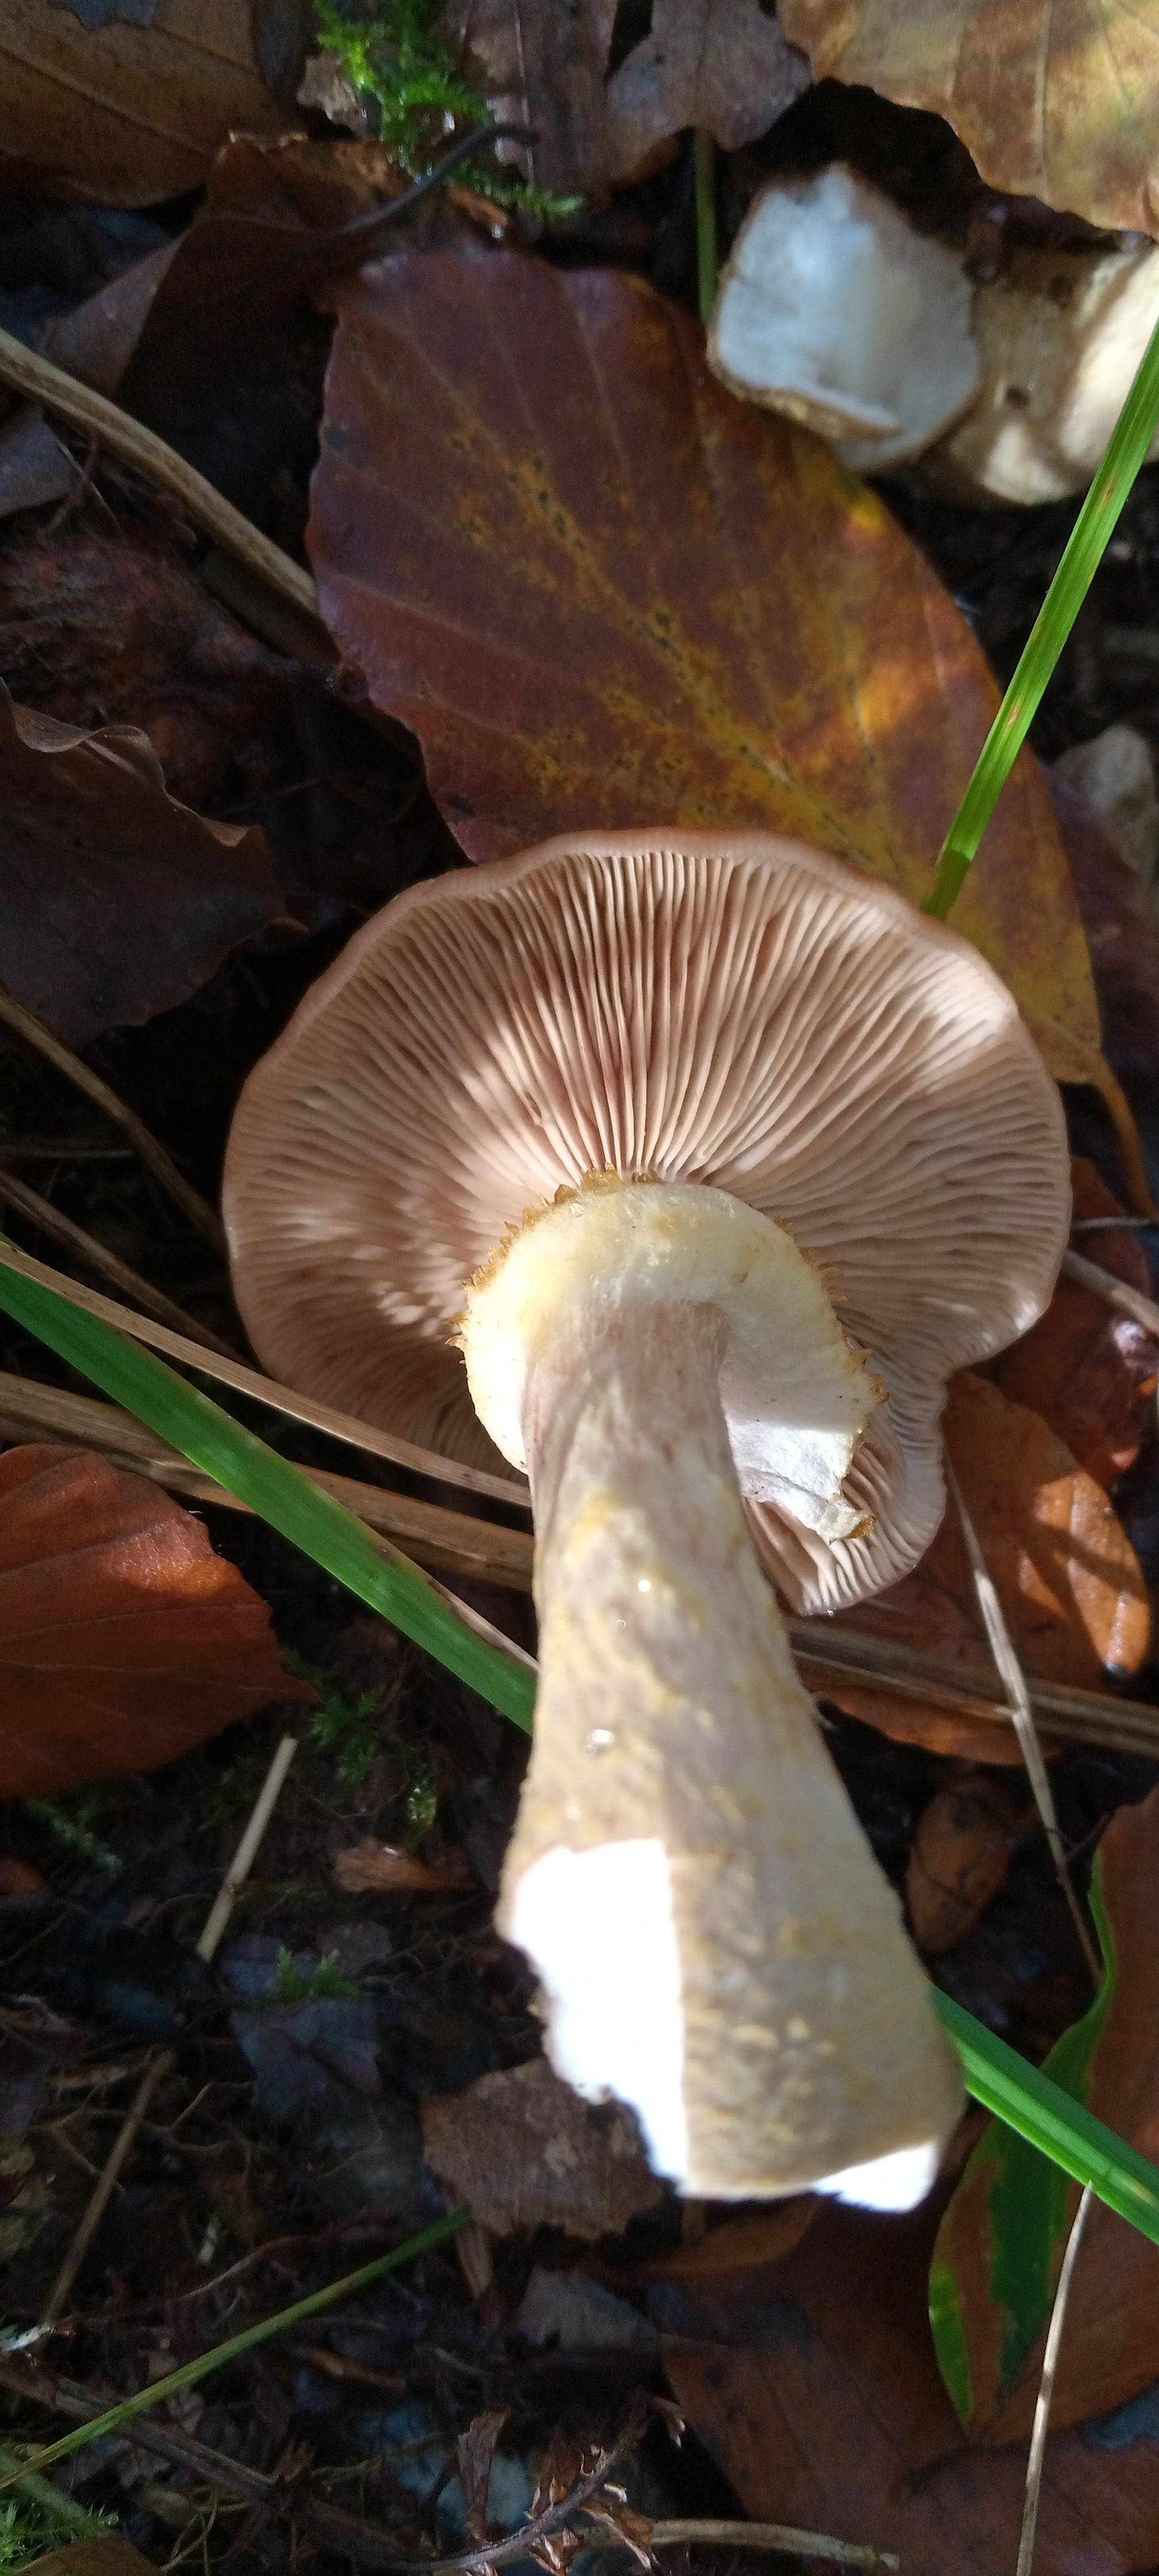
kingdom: Fungi
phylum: Basidiomycota
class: Agaricomycetes
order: Agaricales
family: Physalacriaceae
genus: Armillaria
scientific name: Armillaria lutea
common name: køllestokket honningsvamp
